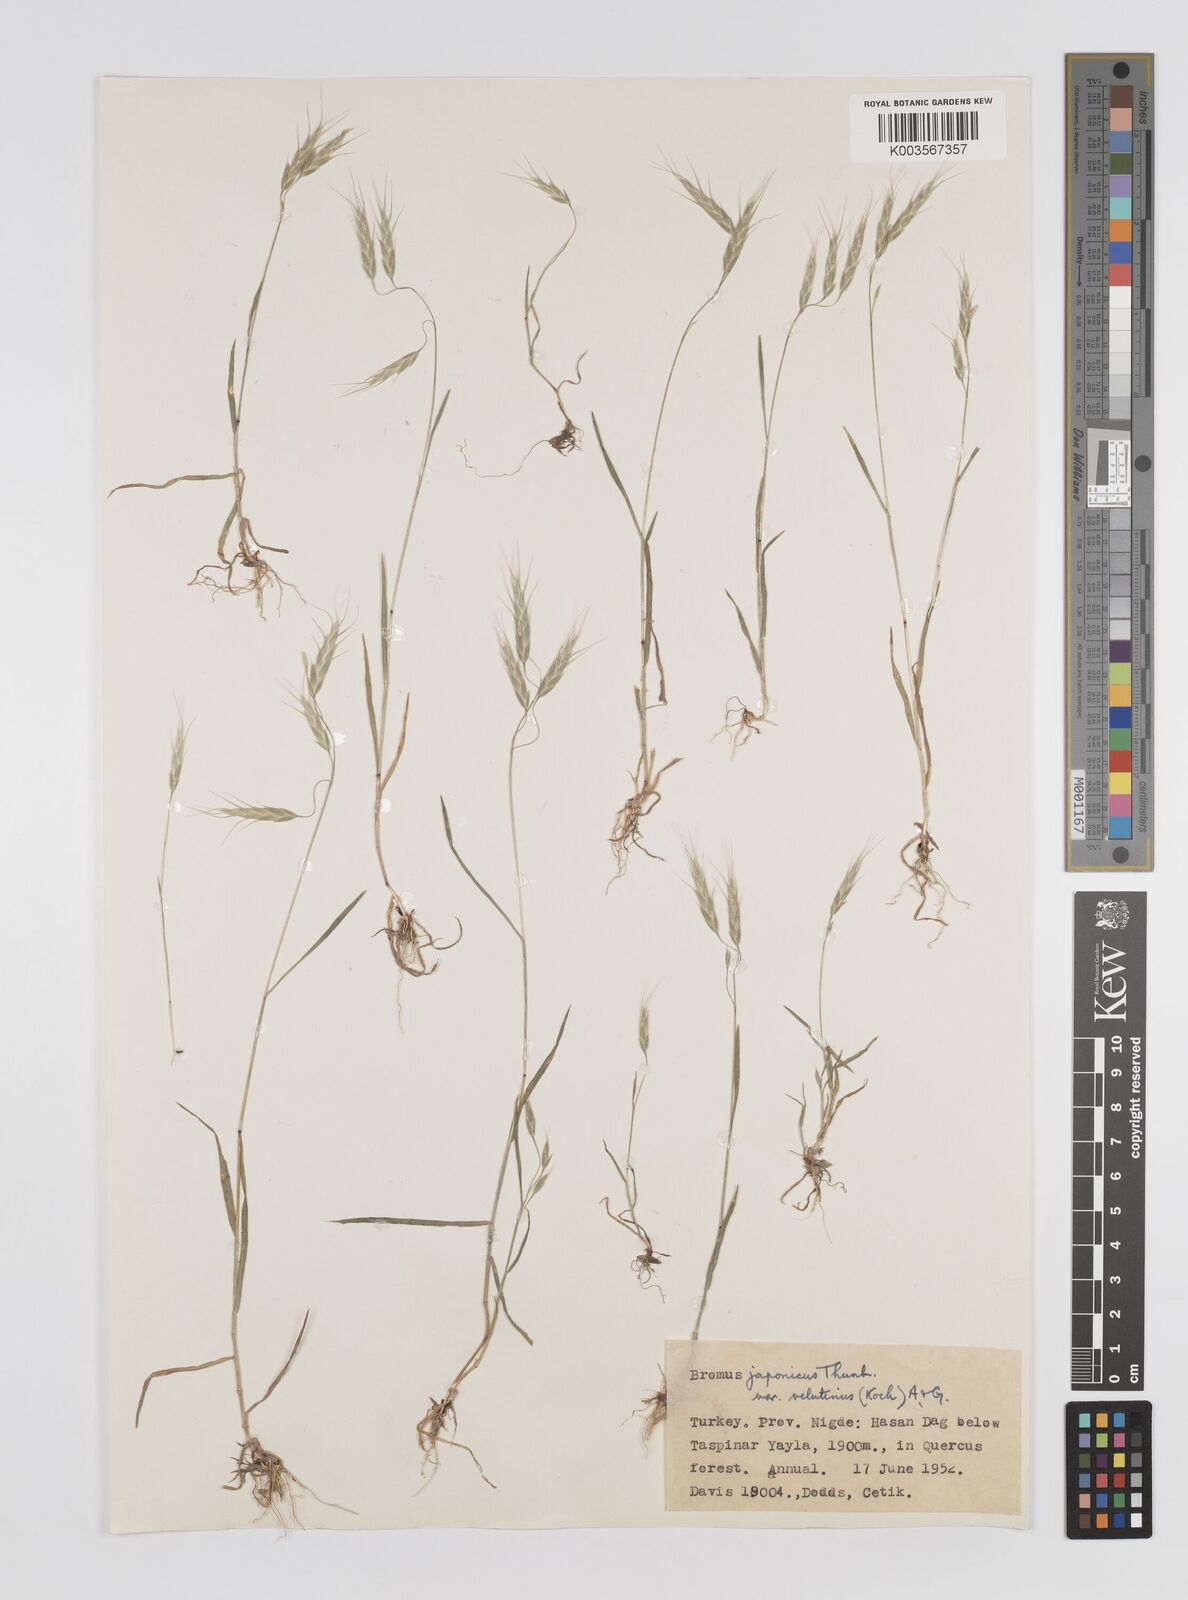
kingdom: Plantae
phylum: Tracheophyta
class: Liliopsida
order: Poales
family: Poaceae
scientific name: Poaceae
